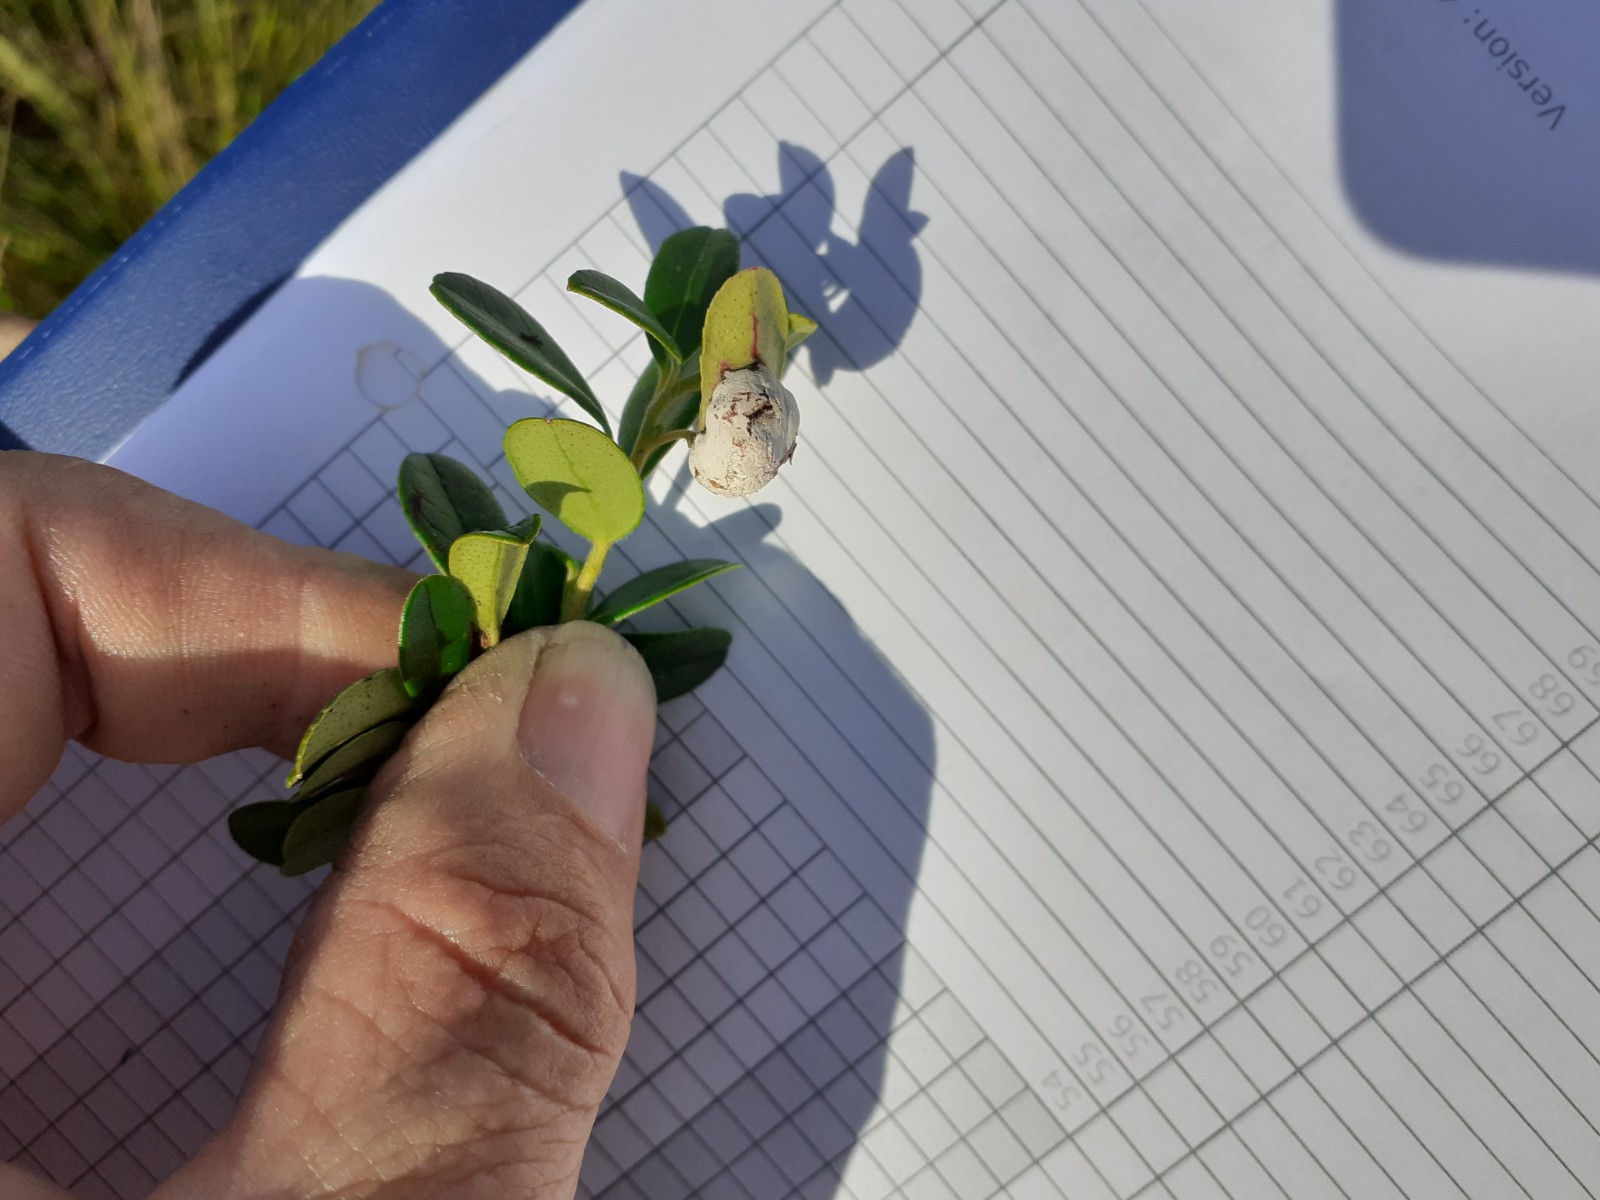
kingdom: Fungi
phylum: Basidiomycota
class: Exobasidiomycetes
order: Exobasidiales
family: Exobasidiaceae
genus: Exobasidium
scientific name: Exobasidium vaccinii
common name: tyttebærblad-bøllesvamp
